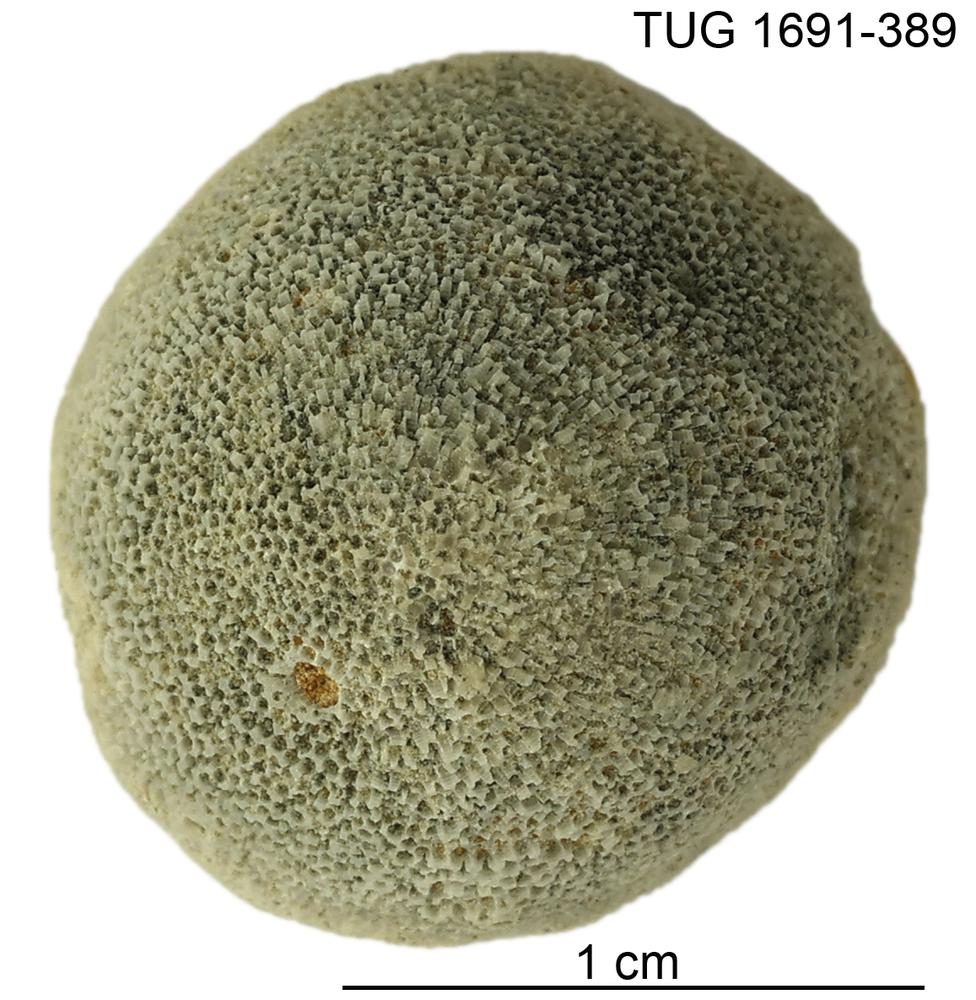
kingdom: Animalia
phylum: Bryozoa
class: Stenolaemata
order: Trepostomatida
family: Diplotrypidae
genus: Diplotrypa
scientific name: Diplotrypa
